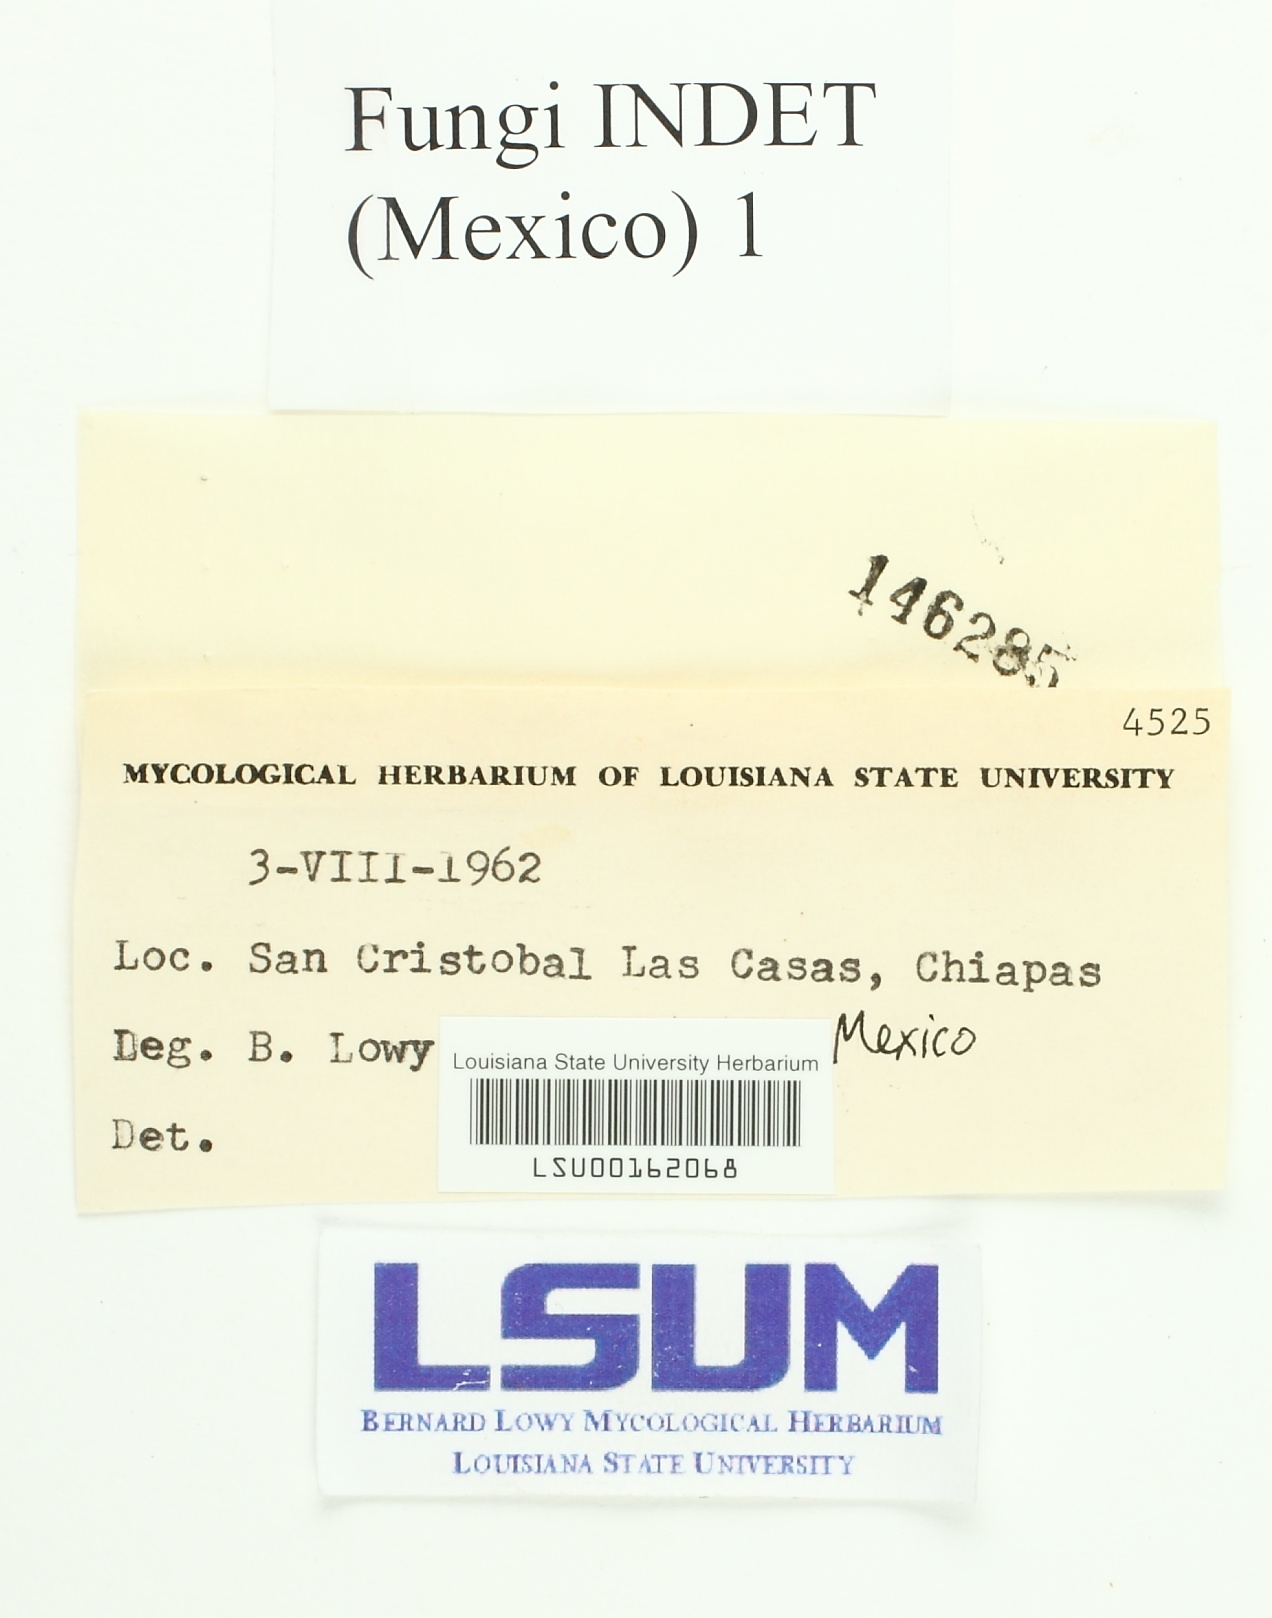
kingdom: Fungi
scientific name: Fungi
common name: Fungi
